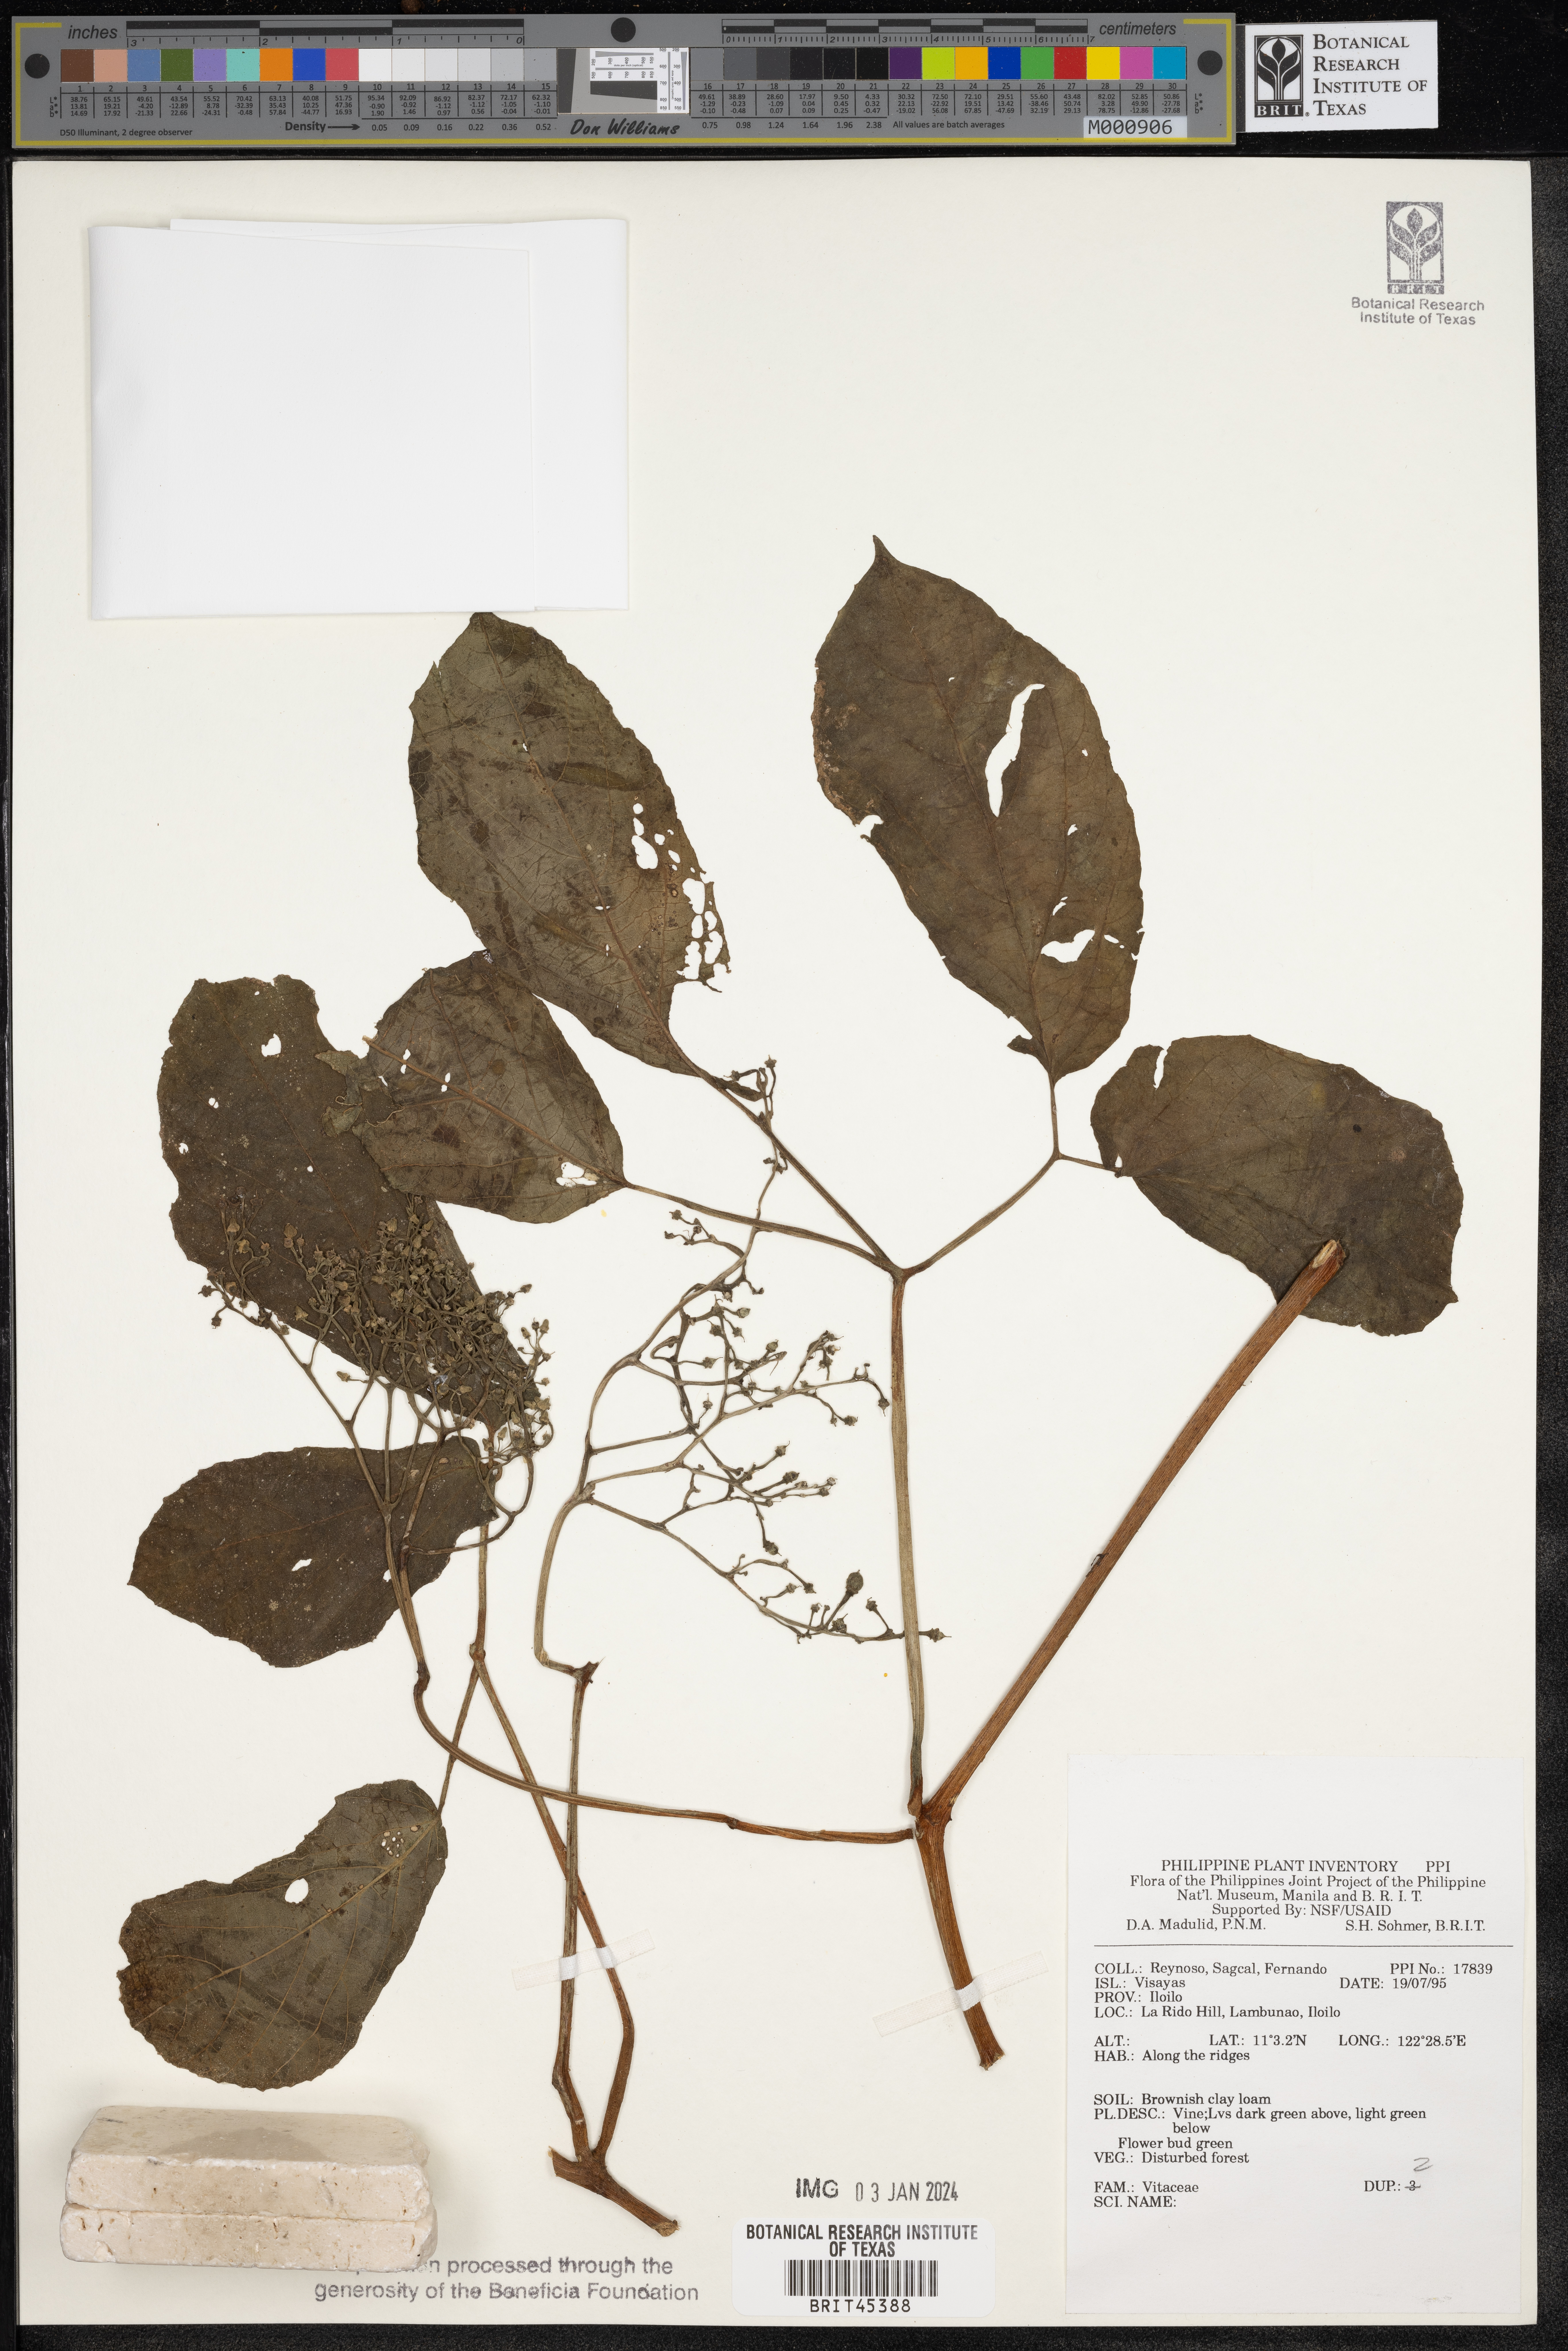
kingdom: Plantae
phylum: Tracheophyta
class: Magnoliopsida
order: Vitales
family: Vitaceae
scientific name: Vitaceae
